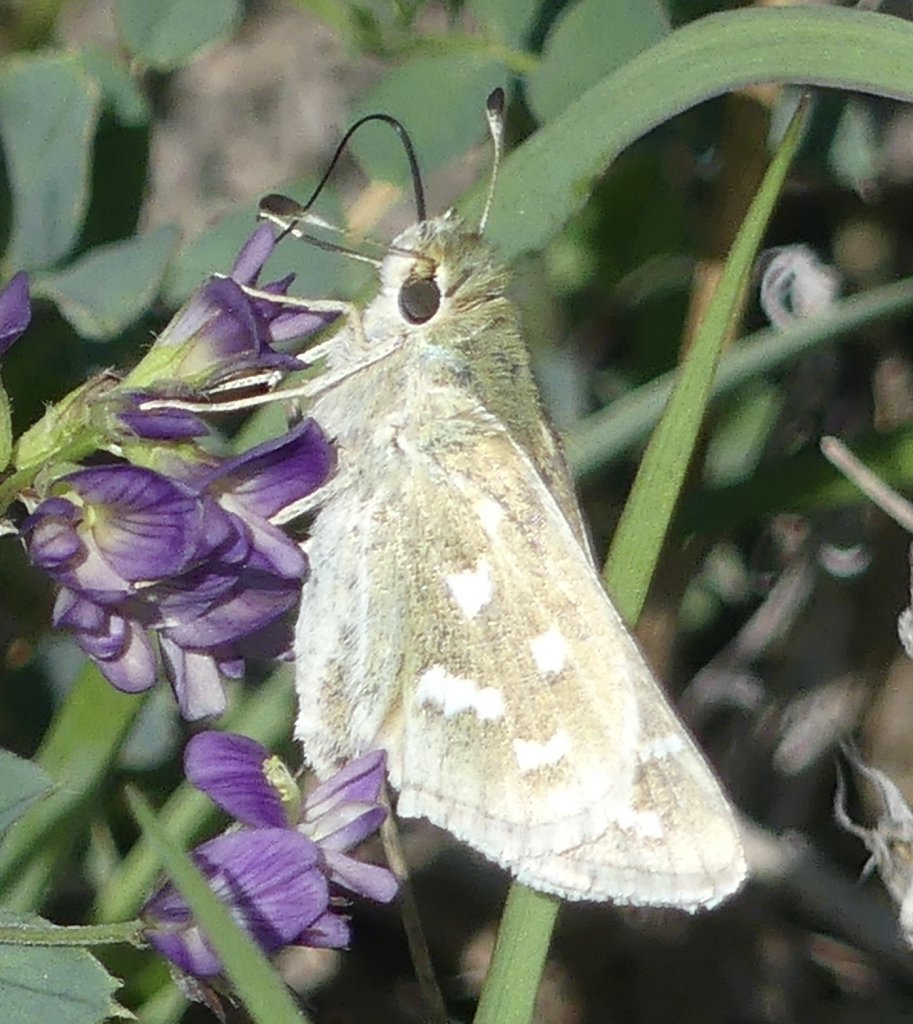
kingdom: Animalia
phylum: Arthropoda
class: Insecta
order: Lepidoptera
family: Hesperiidae
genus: Hesperia
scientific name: Hesperia comma
